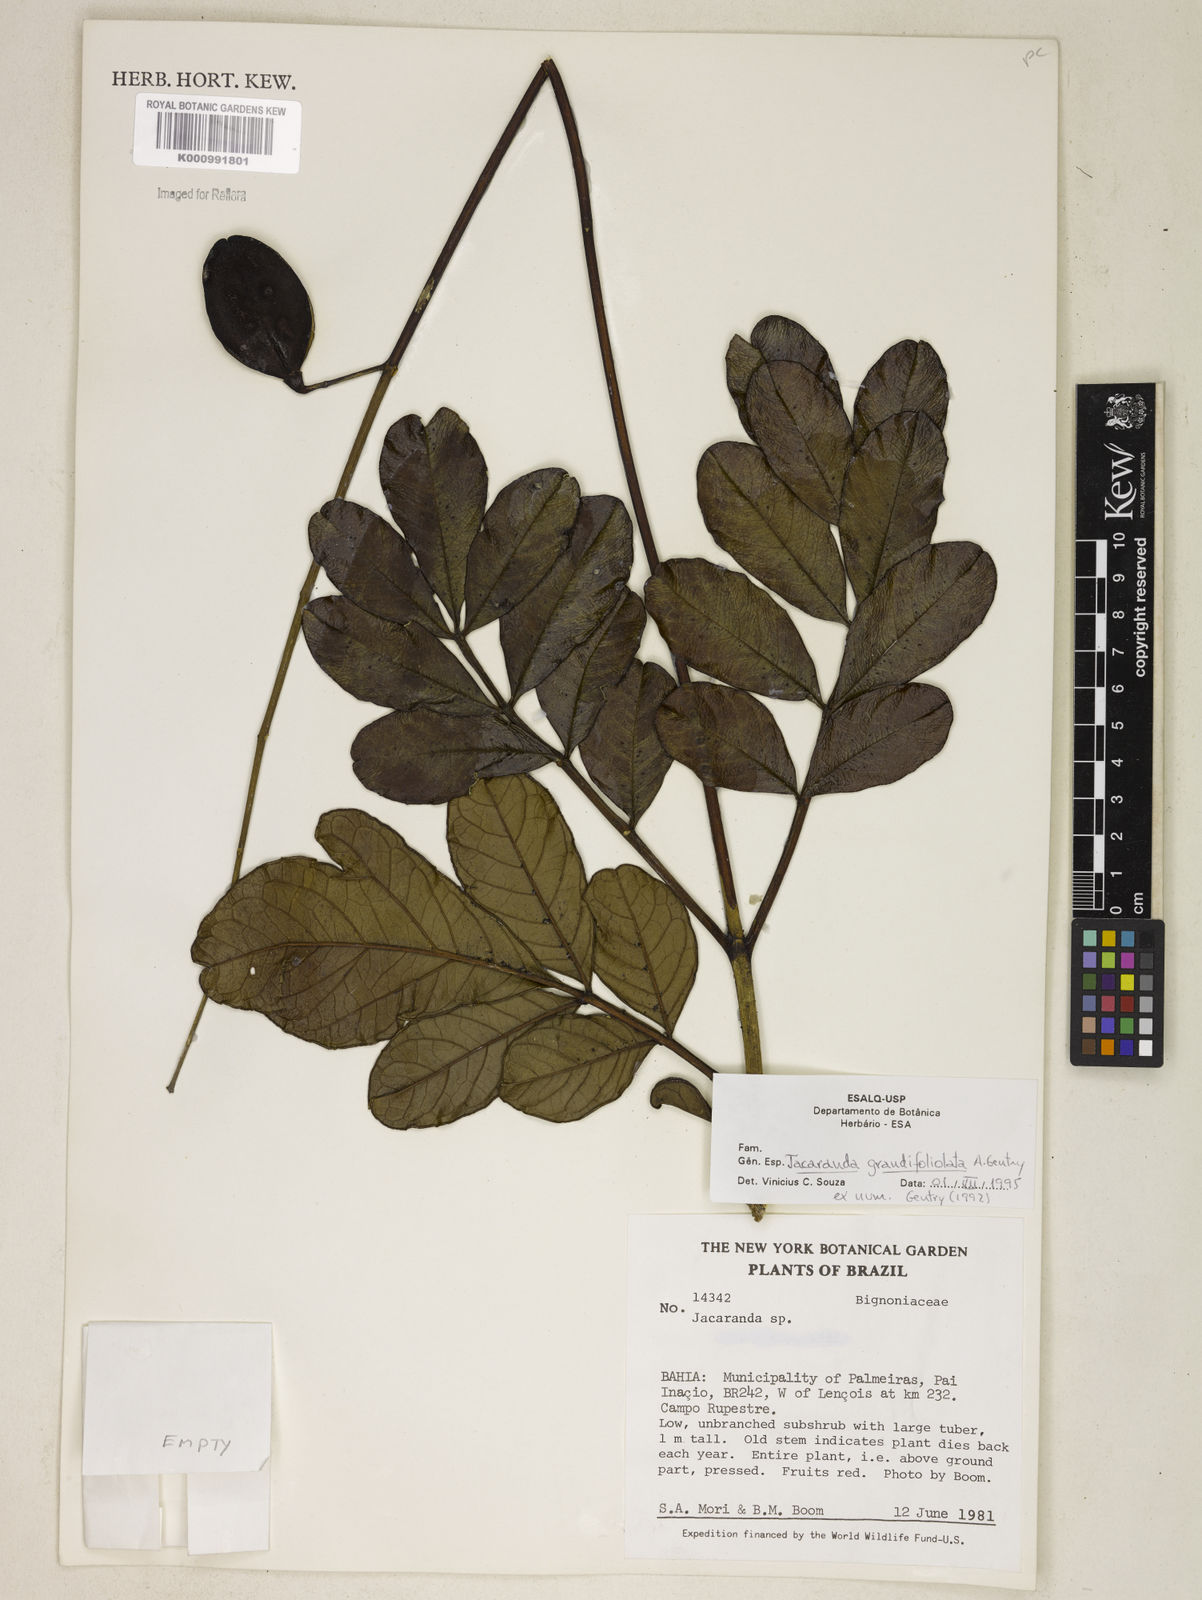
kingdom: Plantae
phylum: Tracheophyta
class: Magnoliopsida
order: Lamiales
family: Bignoniaceae
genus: Jacaranda
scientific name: Jacaranda grandifoliolata
